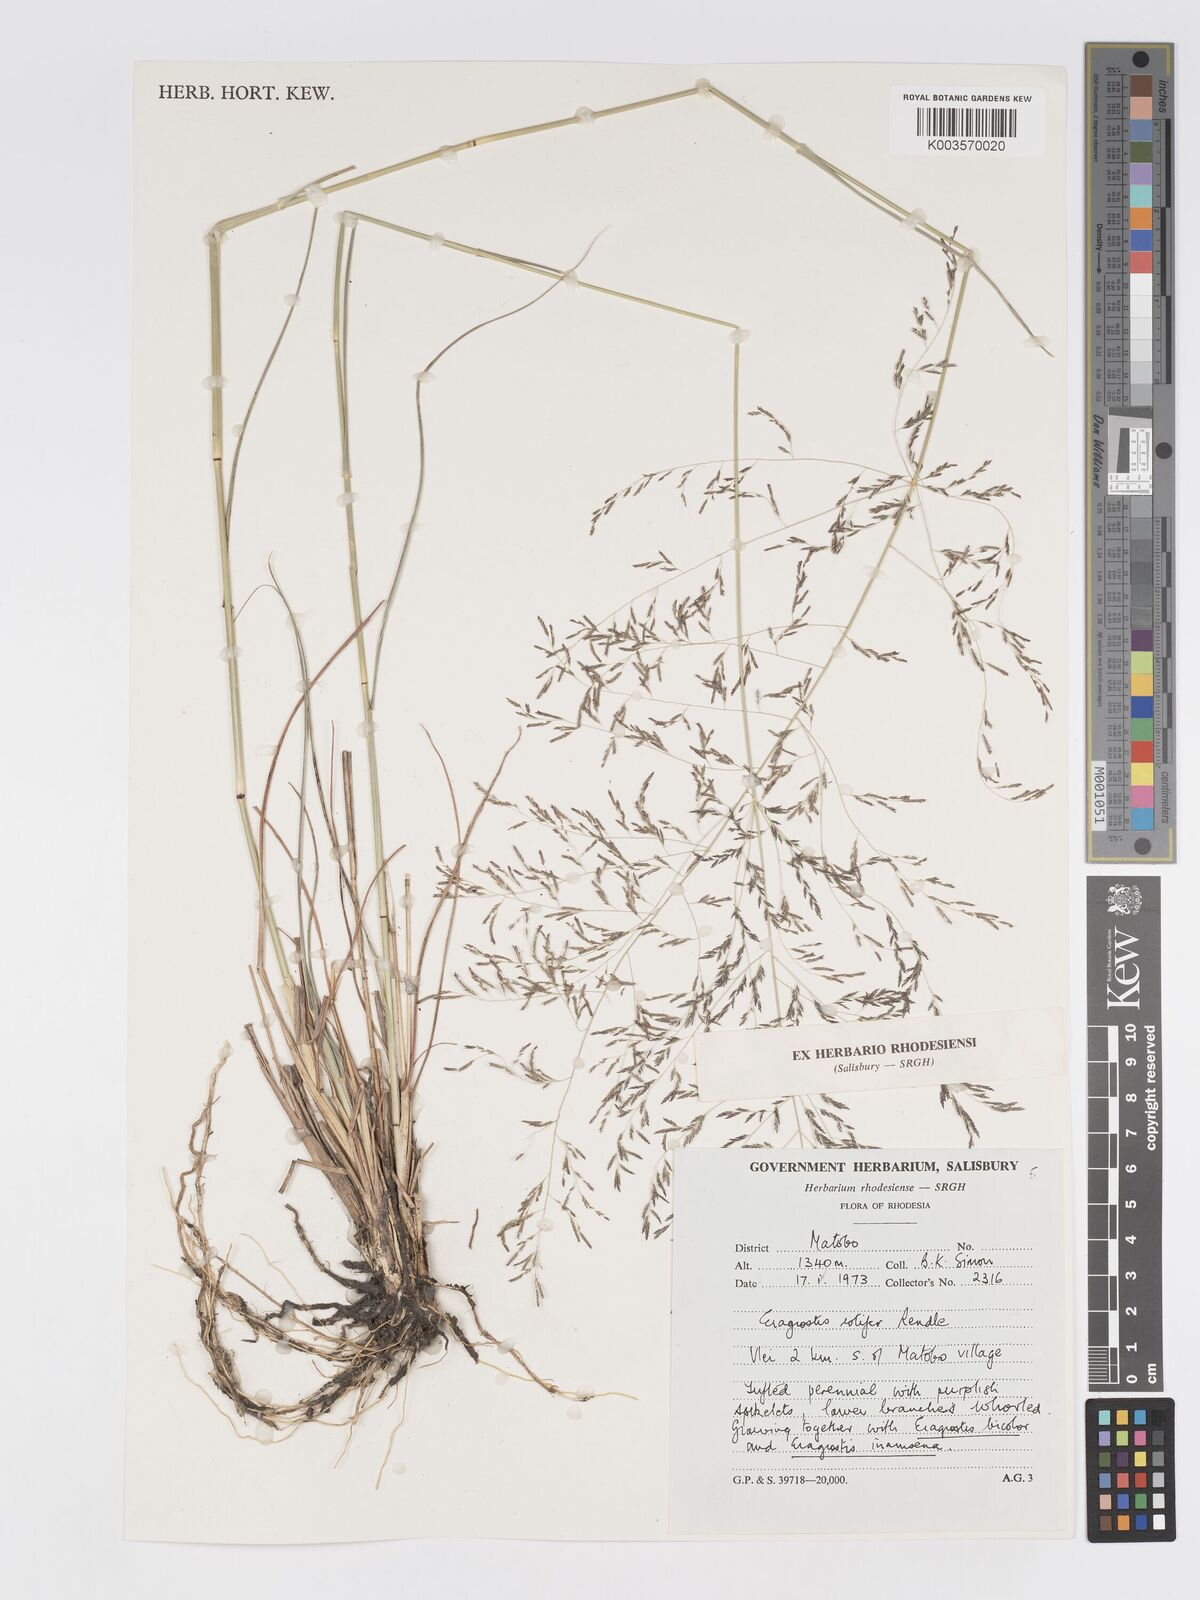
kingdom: Plantae
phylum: Tracheophyta
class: Liliopsida
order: Poales
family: Poaceae
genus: Eragrostis
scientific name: Eragrostis rotifer
